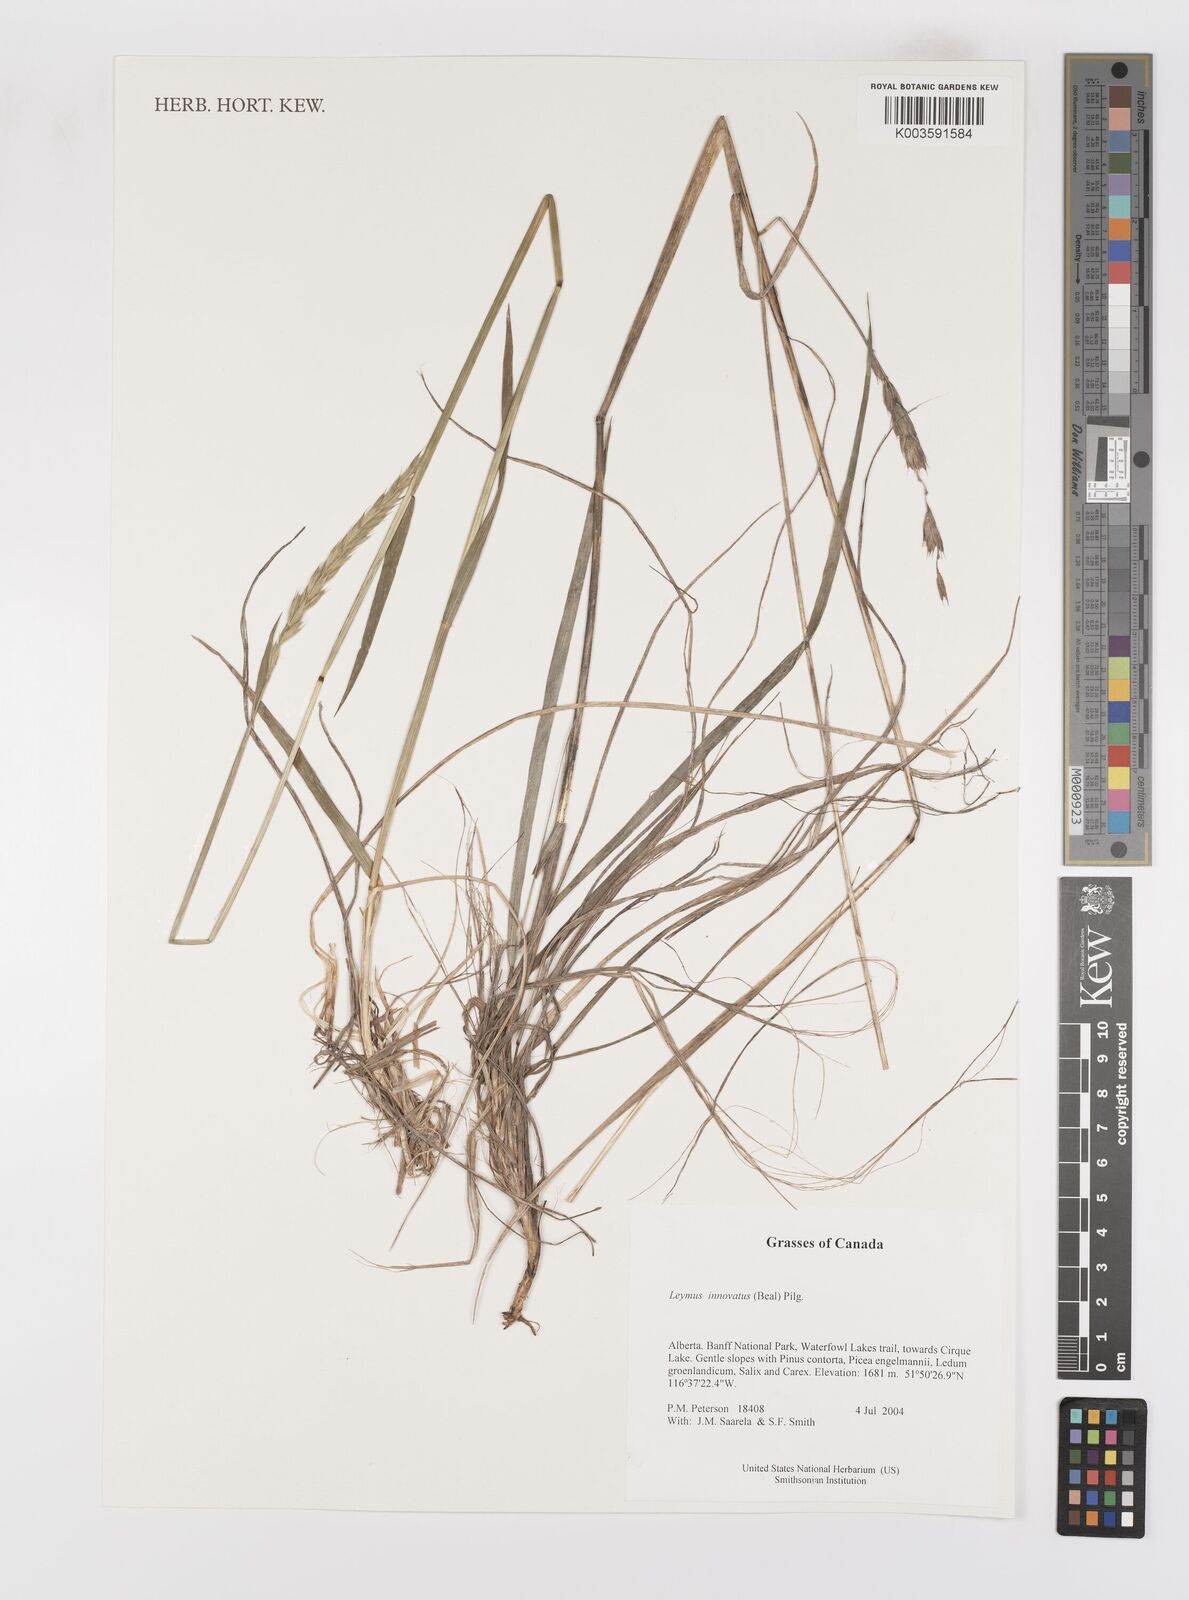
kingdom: Plantae
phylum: Tracheophyta
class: Liliopsida
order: Poales
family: Poaceae
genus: Leymus
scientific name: Leymus innovatus
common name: Boreal wild rye
